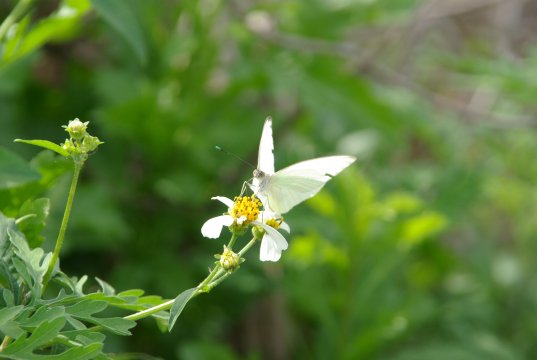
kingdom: Animalia
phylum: Arthropoda
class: Insecta
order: Lepidoptera
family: Pieridae
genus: Ascia
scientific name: Ascia monuste
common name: Great Southern White
